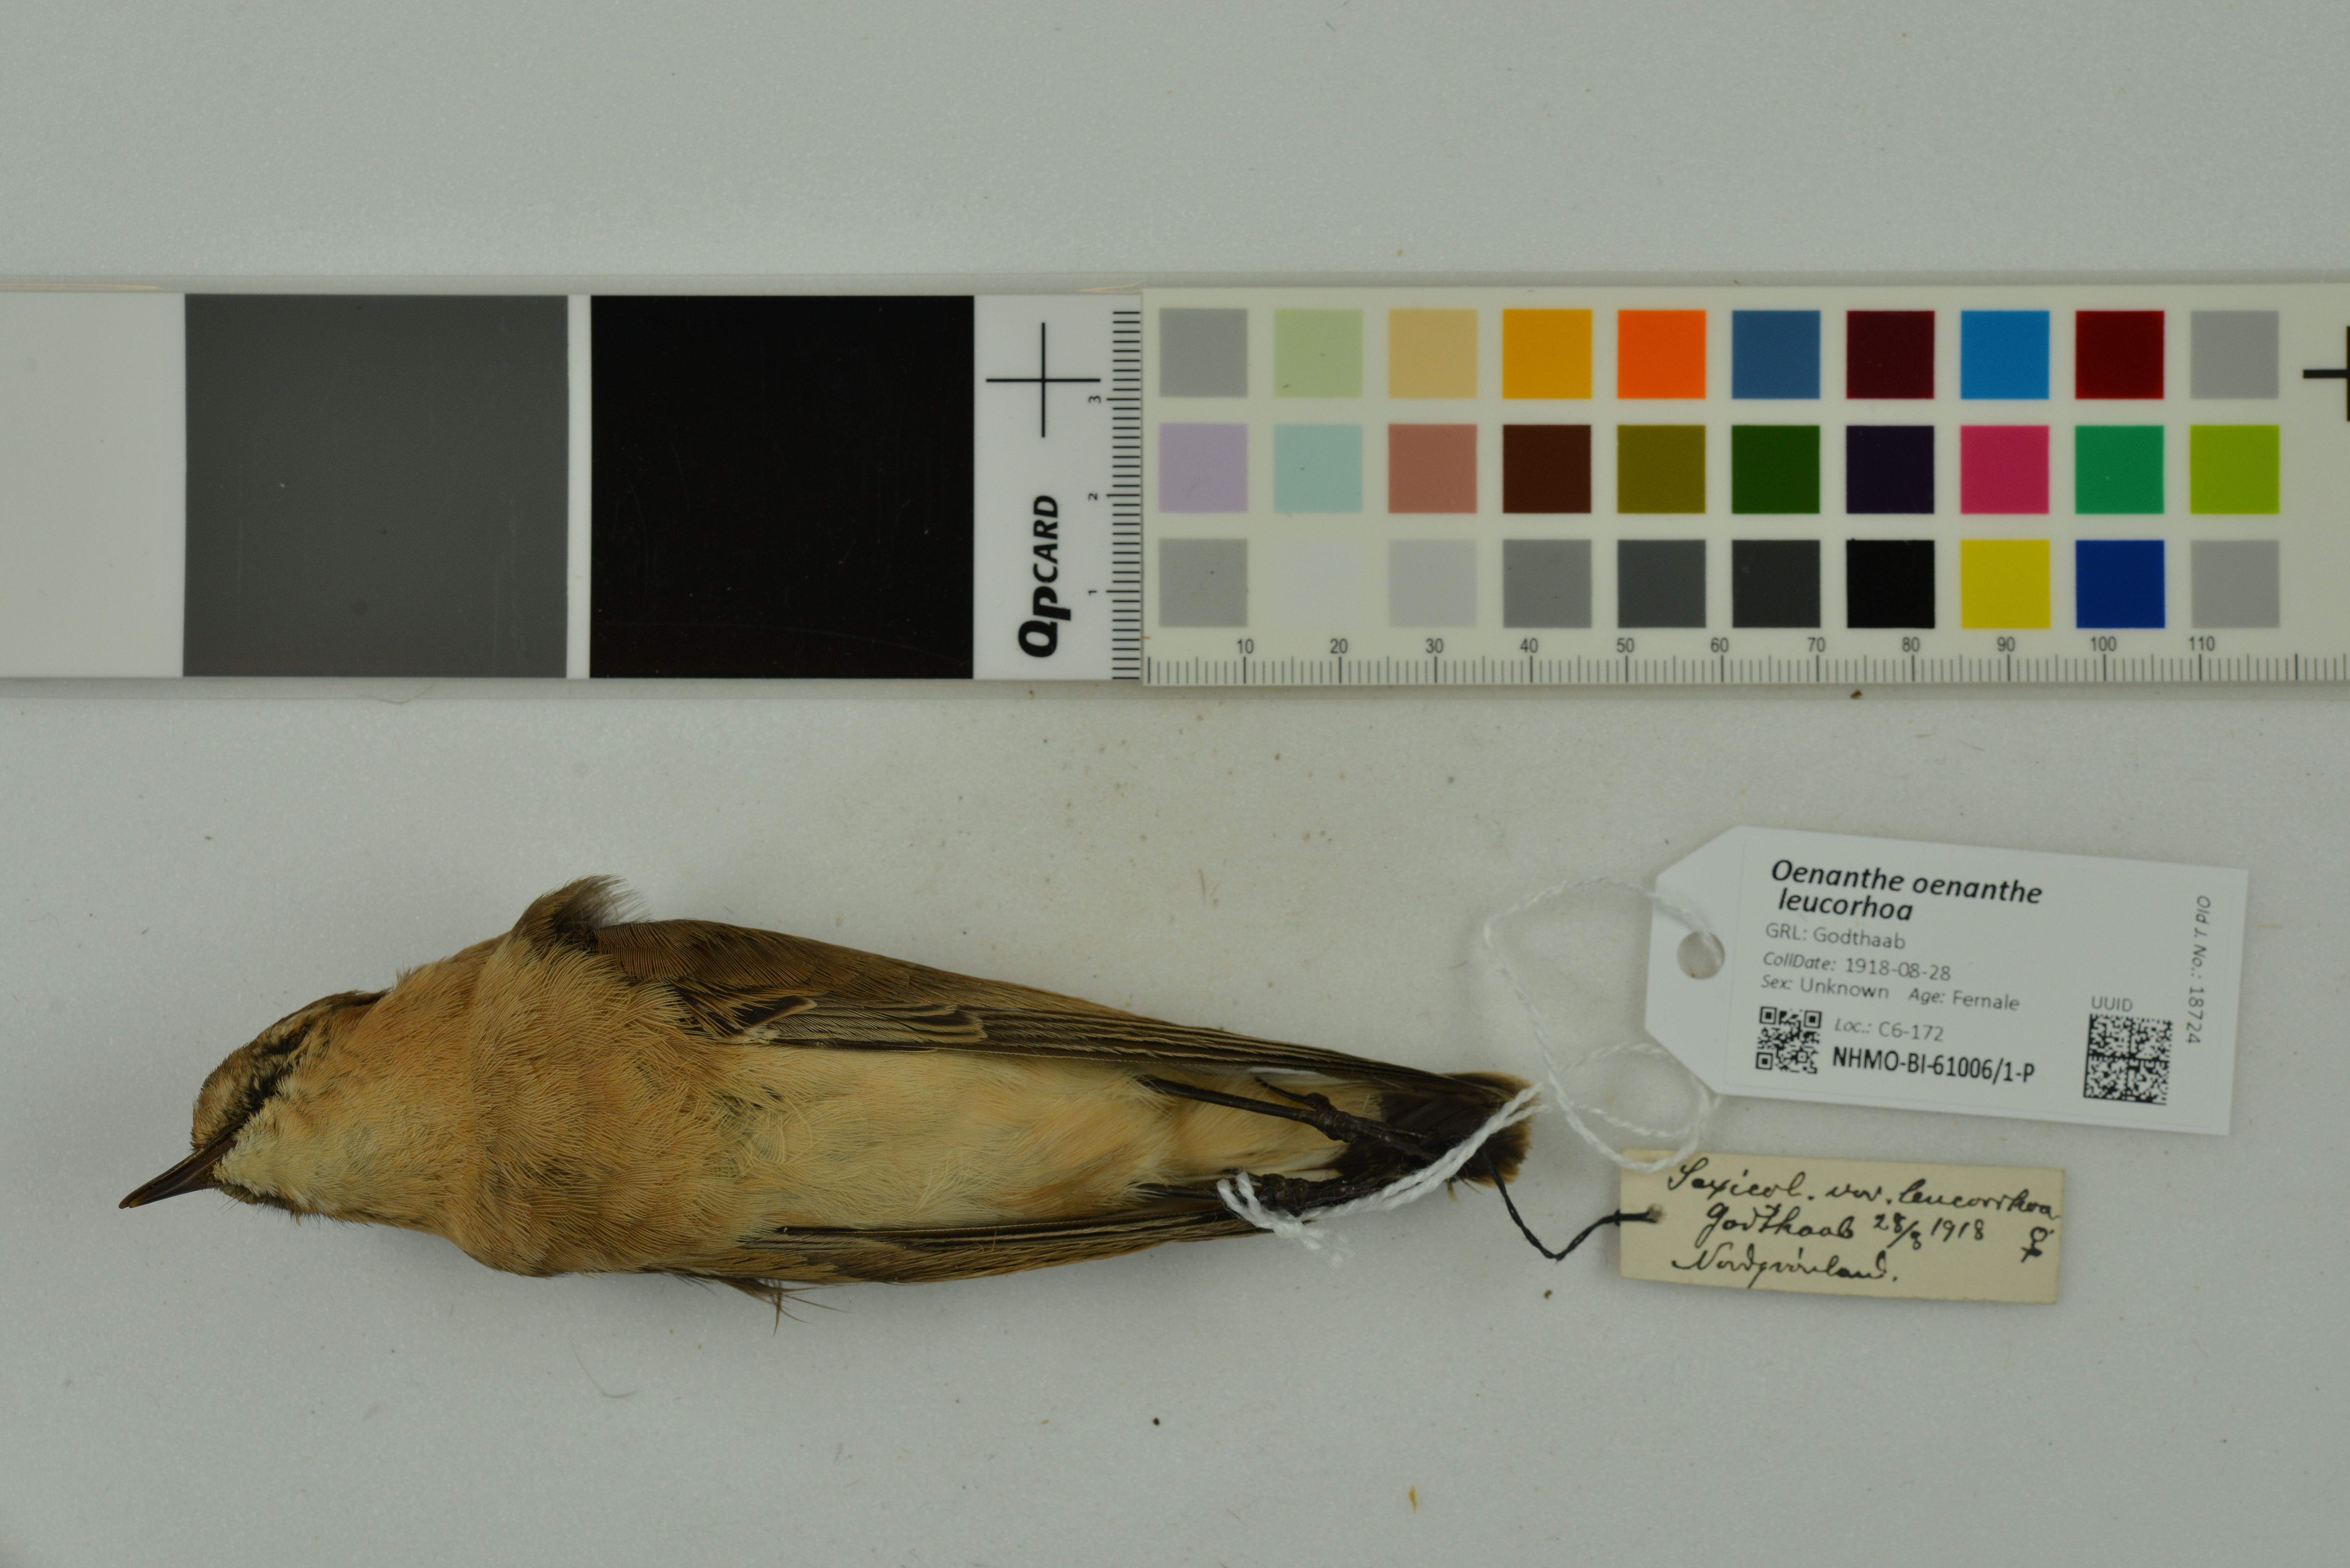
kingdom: Animalia
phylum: Chordata
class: Aves
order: Passeriformes
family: Muscicapidae
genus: Oenanthe
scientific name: Oenanthe oenanthe
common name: Northern wheatear
